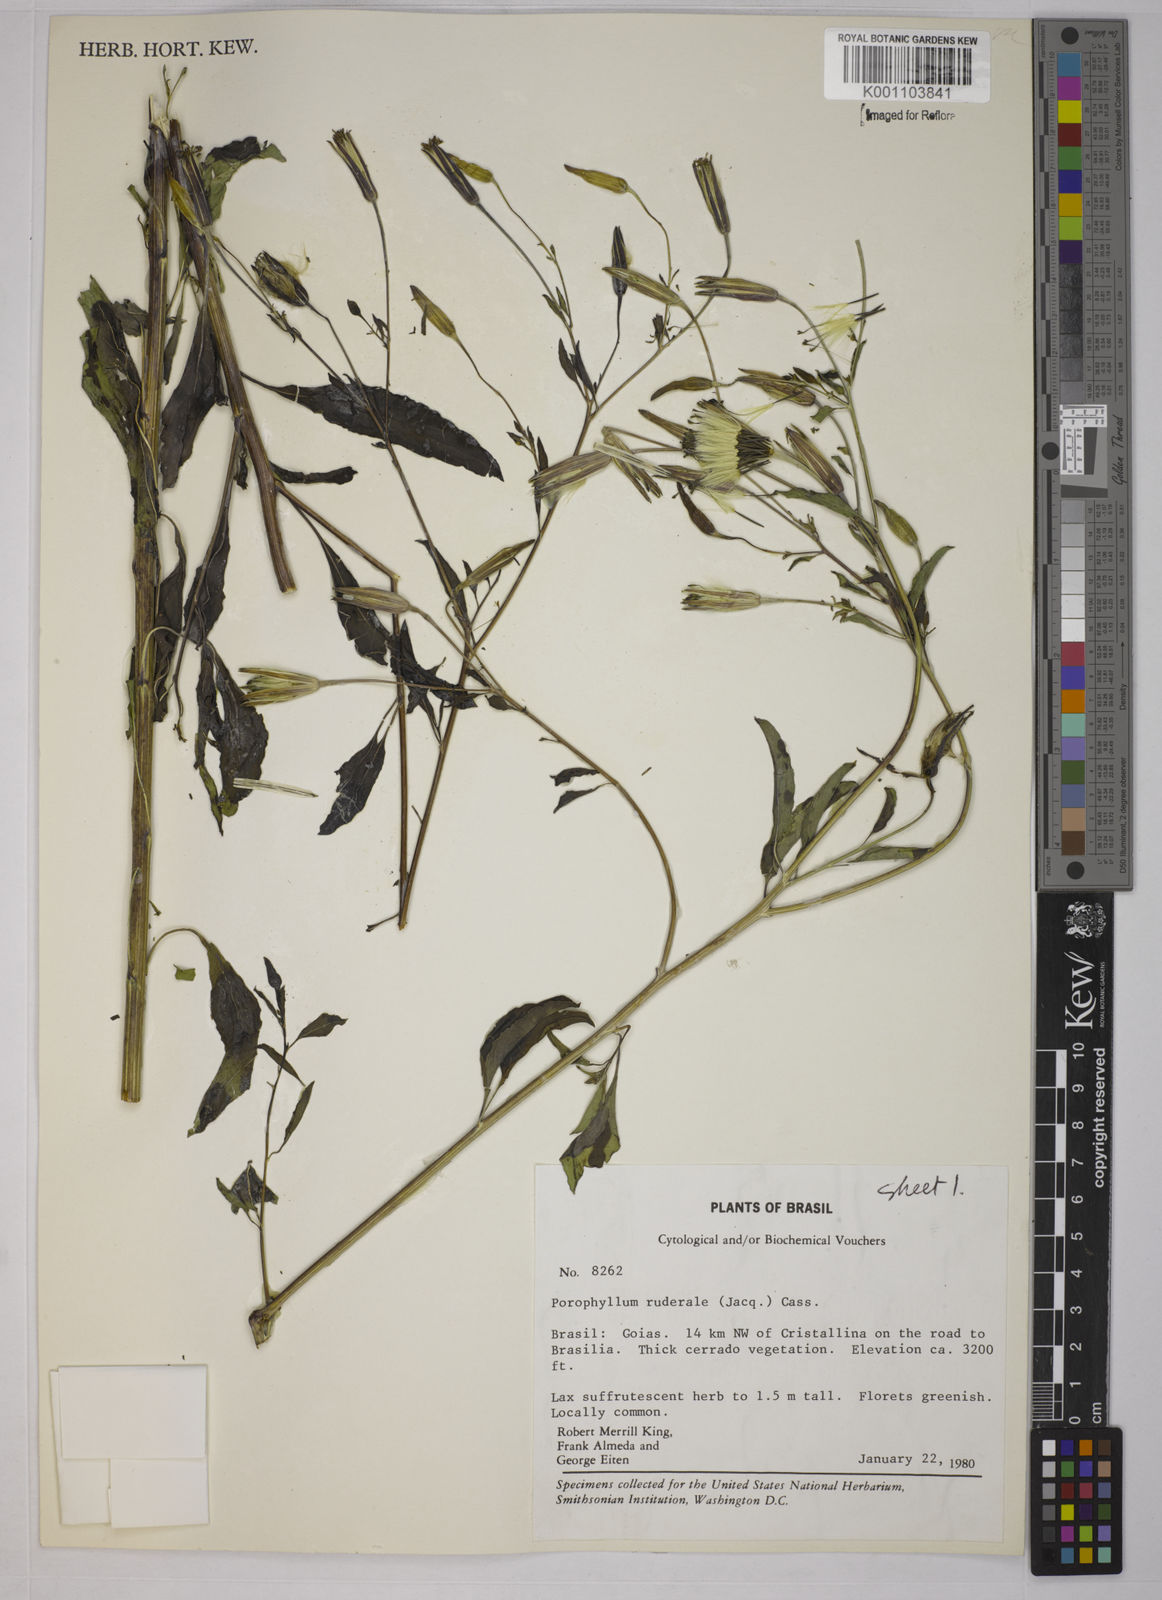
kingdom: Plantae
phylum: Tracheophyta
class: Magnoliopsida
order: Asterales
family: Asteraceae
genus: Porophyllum
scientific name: Porophyllum ruderale
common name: Yerba porosa
